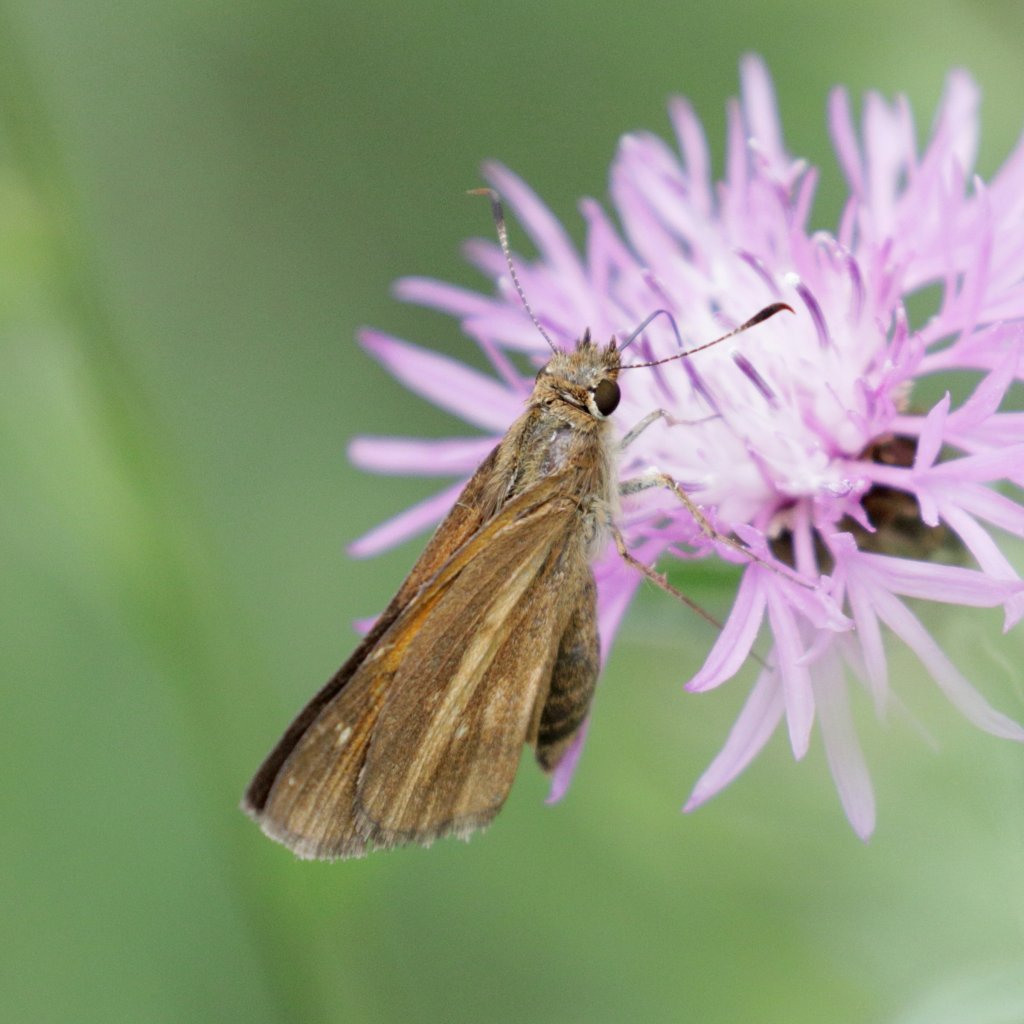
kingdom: Animalia
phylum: Arthropoda
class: Insecta
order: Lepidoptera
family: Hesperiidae
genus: Poanes
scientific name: Poanes viator
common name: Broad-winged Skipper
